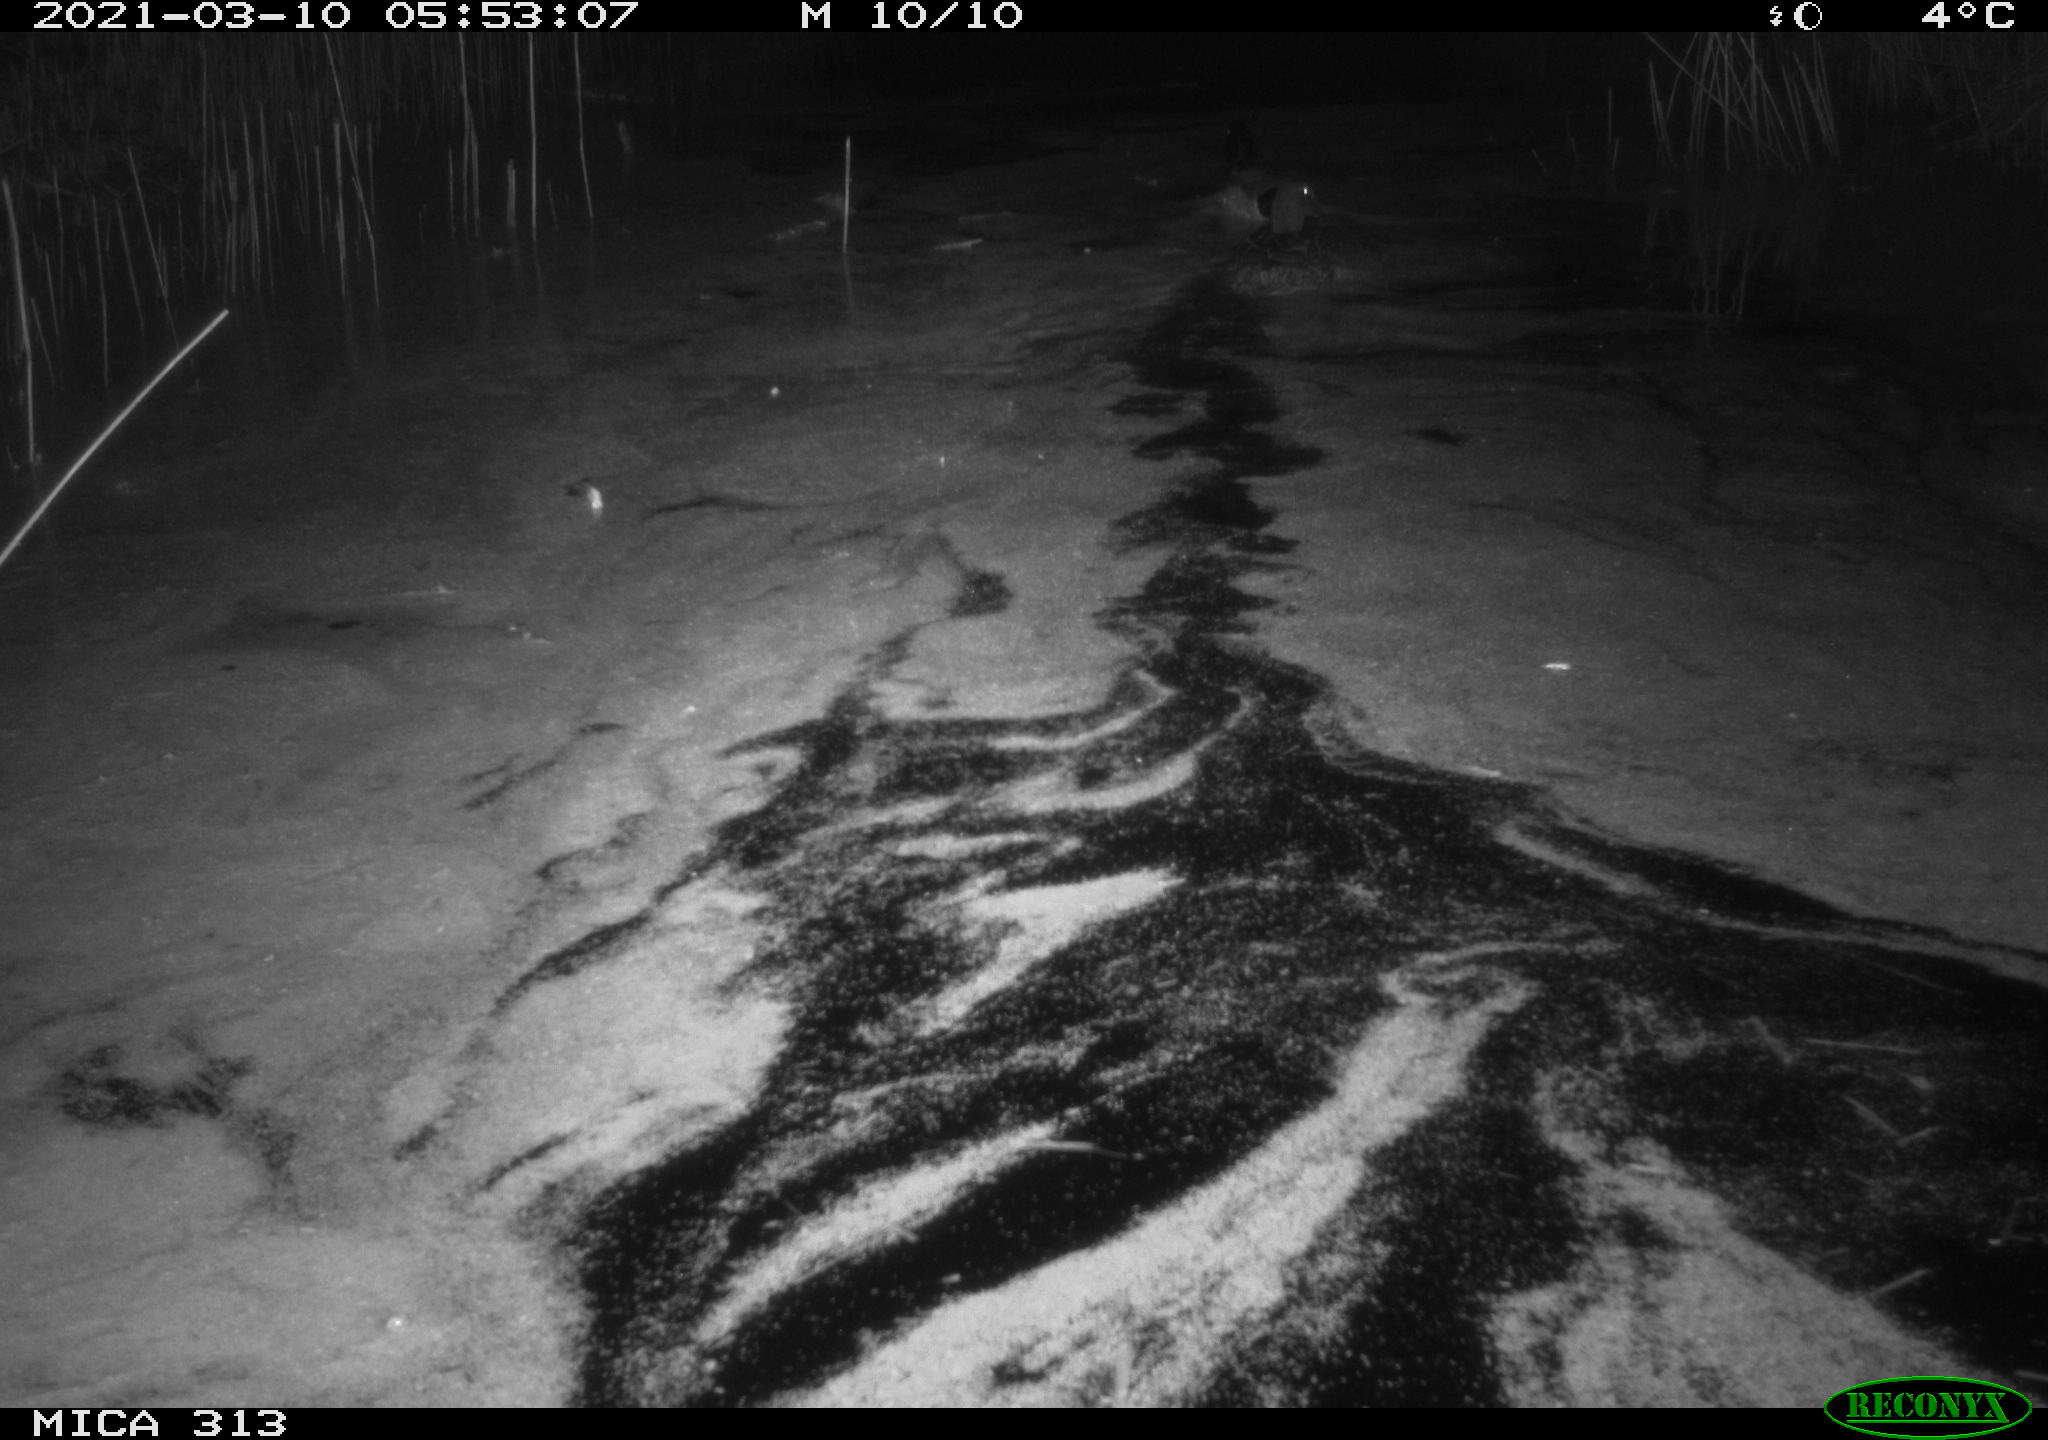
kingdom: Animalia
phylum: Chordata
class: Aves
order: Anseriformes
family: Anatidae
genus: Anas
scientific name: Anas platyrhynchos
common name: Mallard
